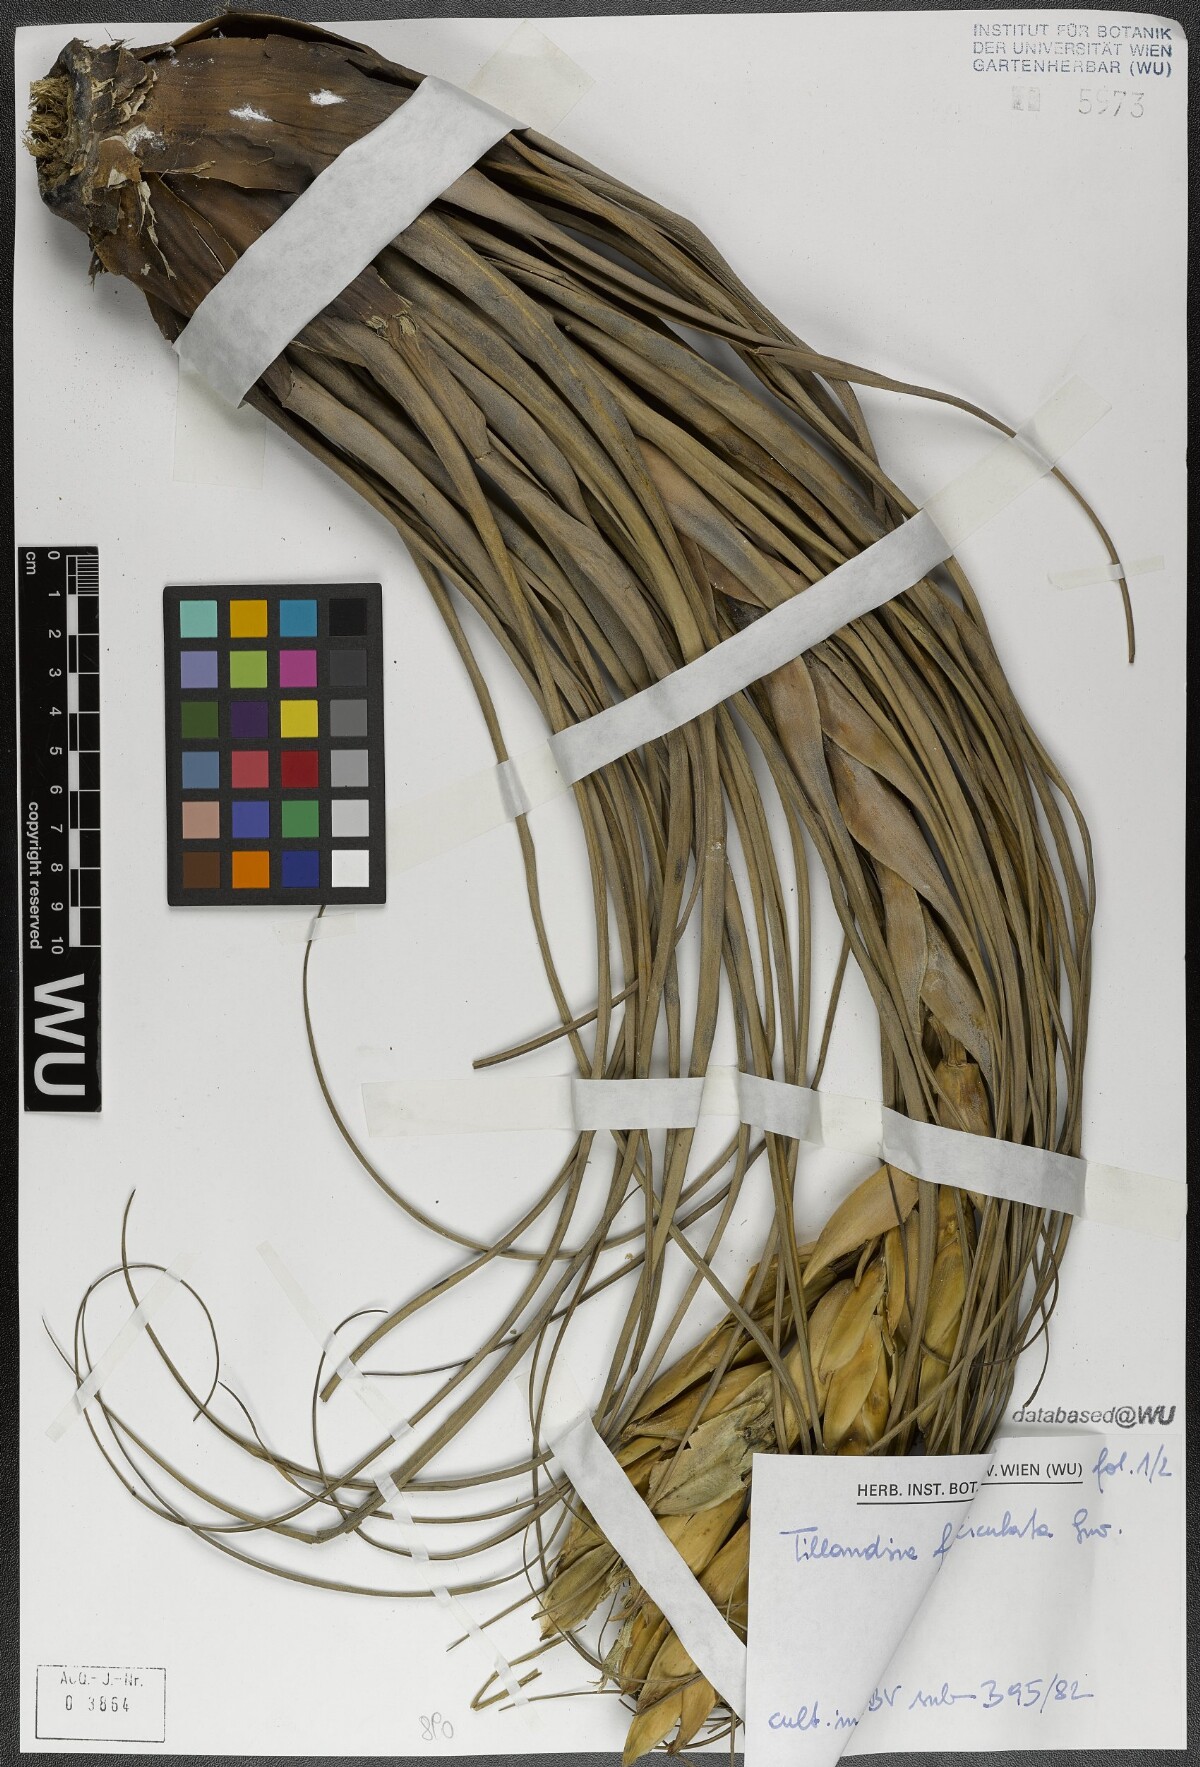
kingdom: Plantae
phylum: Tracheophyta
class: Liliopsida
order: Poales
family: Bromeliaceae
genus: Tillandsia
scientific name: Tillandsia fasciculata
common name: Giant airplant
